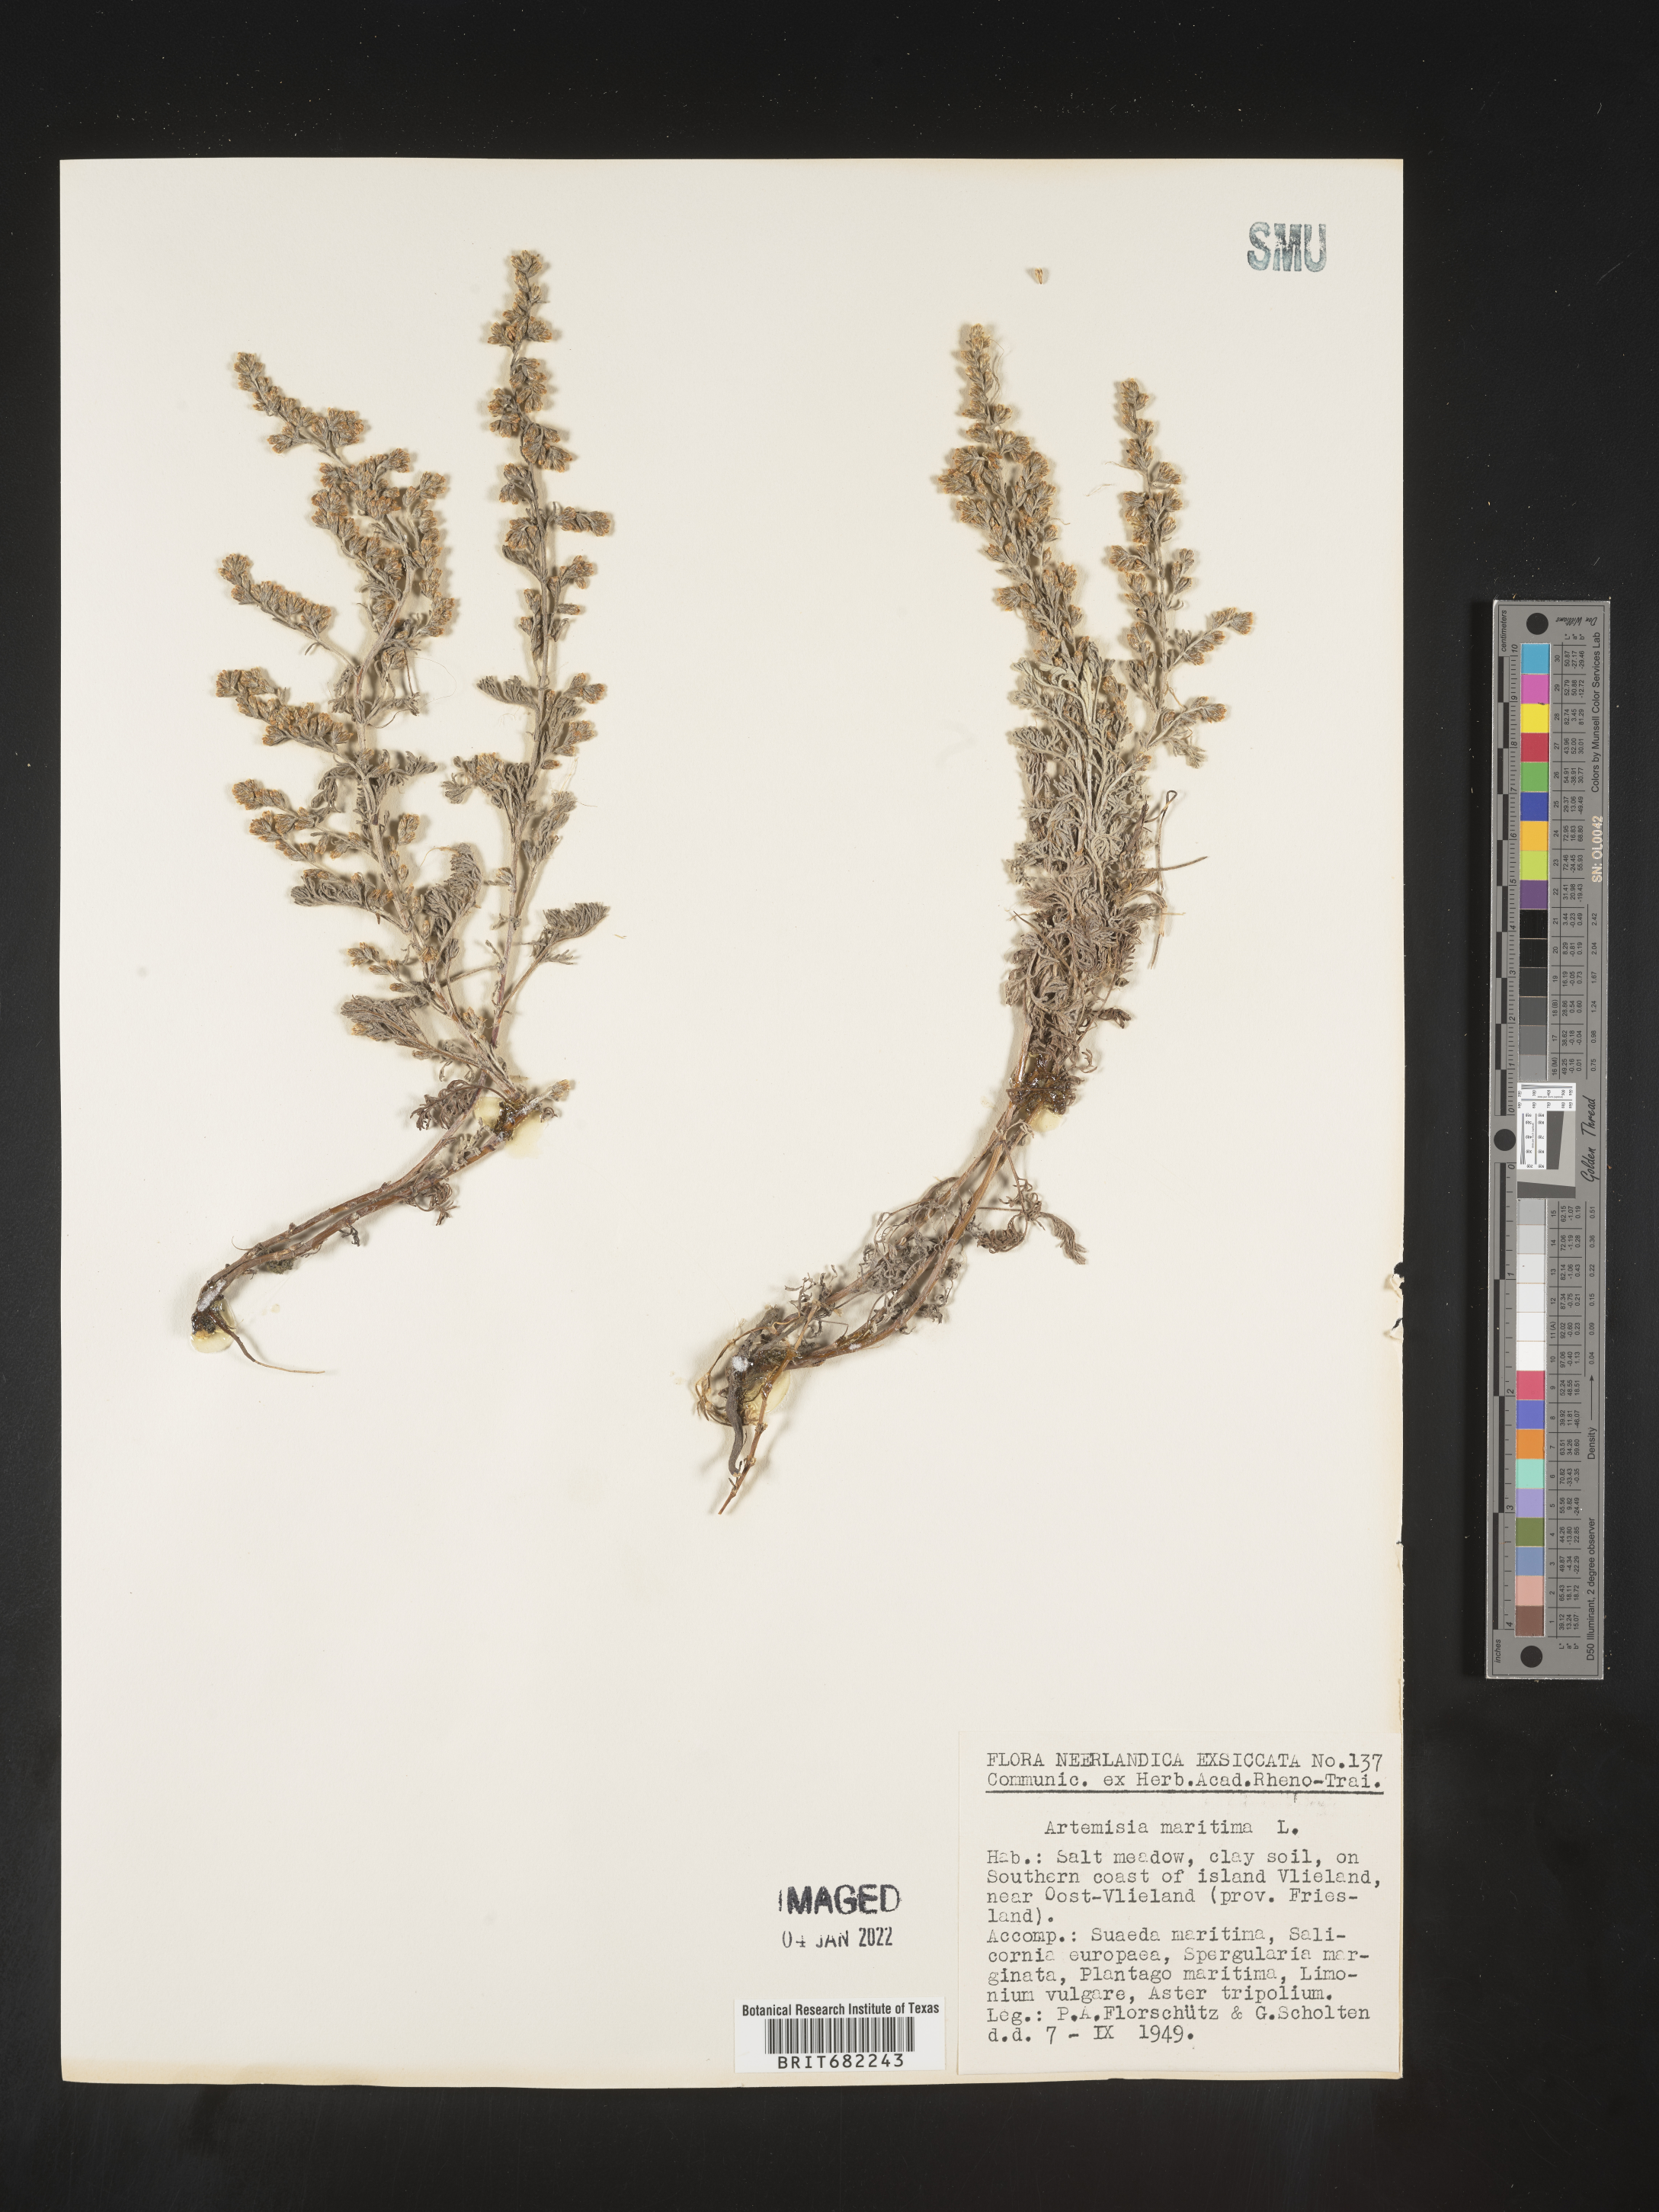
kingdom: Plantae
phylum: Tracheophyta
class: Magnoliopsida
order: Asterales
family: Asteraceae
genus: Artemisia
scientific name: Artemisia
